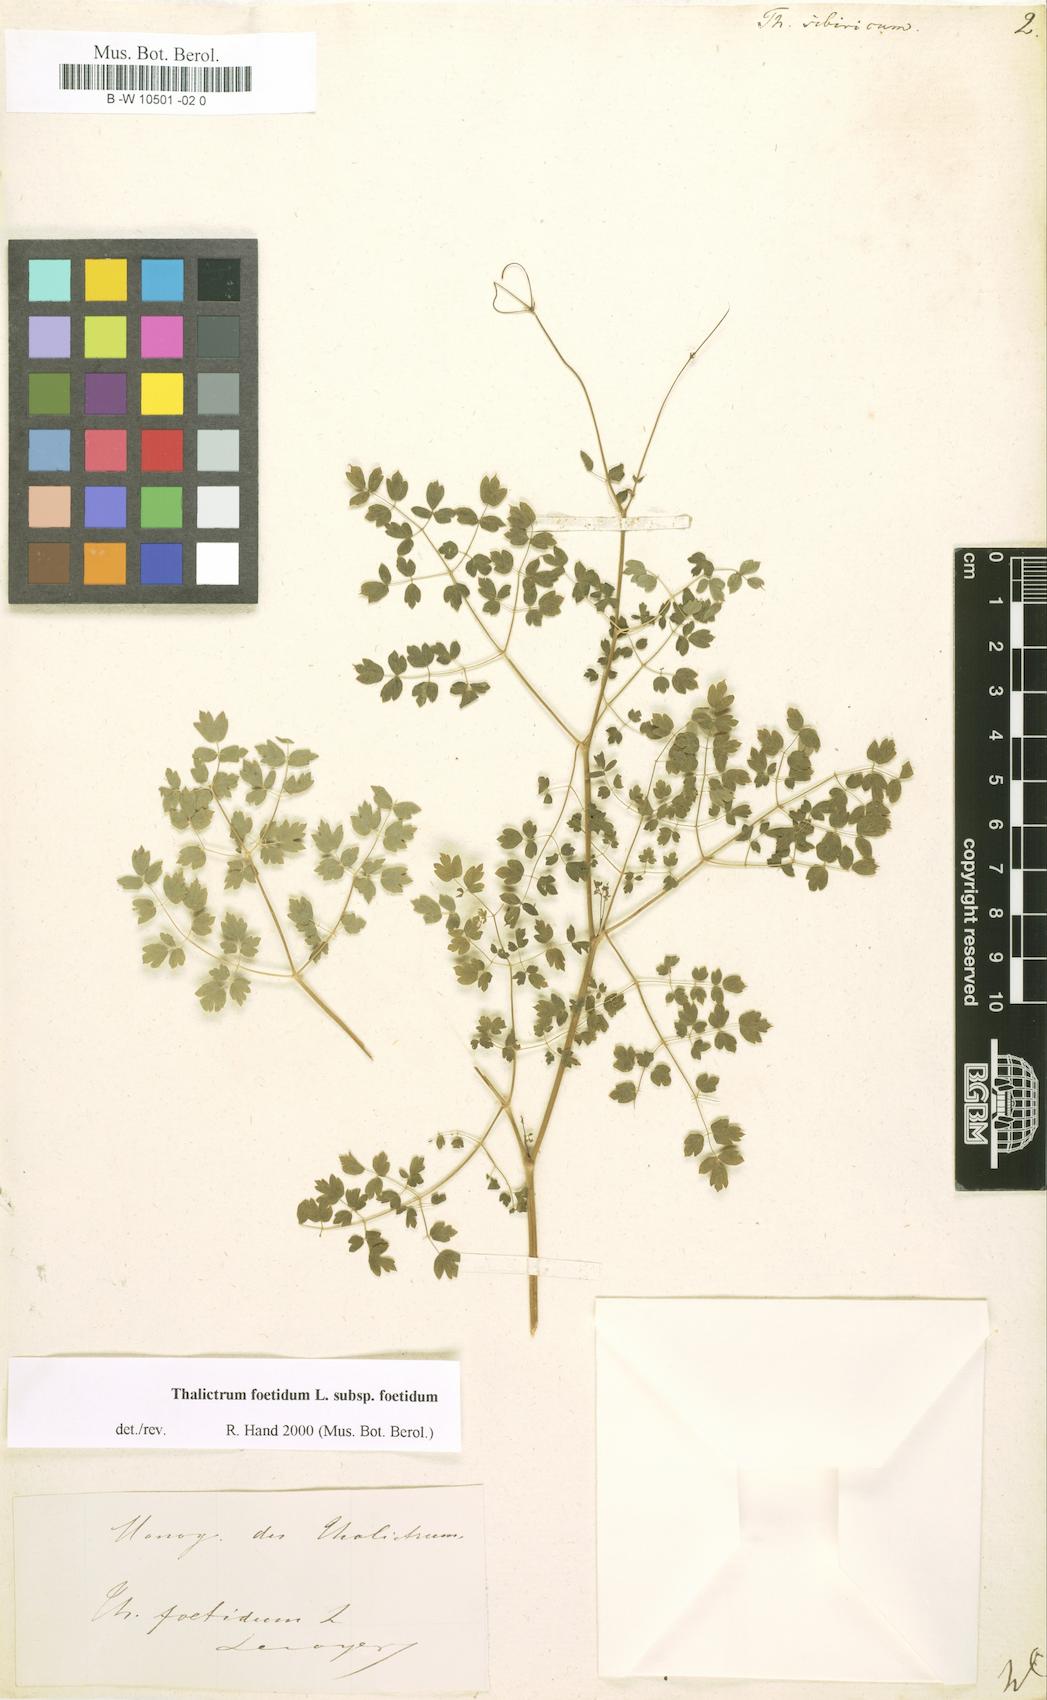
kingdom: Plantae
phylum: Tracheophyta
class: Magnoliopsida
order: Ranunculales
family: Ranunculaceae
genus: Thalictrum
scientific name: Thalictrum
